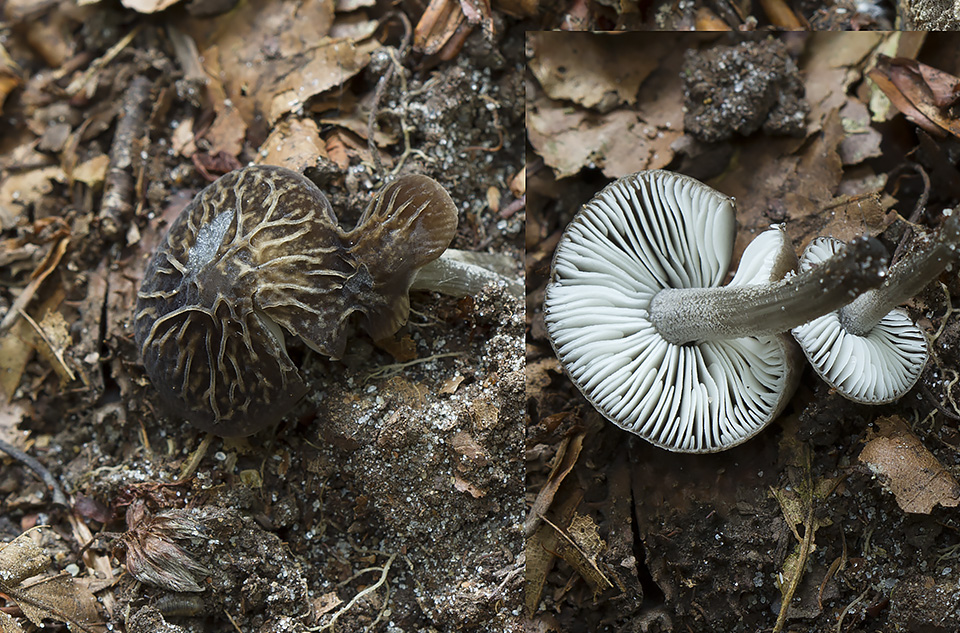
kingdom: Fungi
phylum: Basidiomycota
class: Agaricomycetes
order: Agaricales
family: Pluteaceae
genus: Pluteus
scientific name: Pluteus
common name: gråstokket skærmhat
